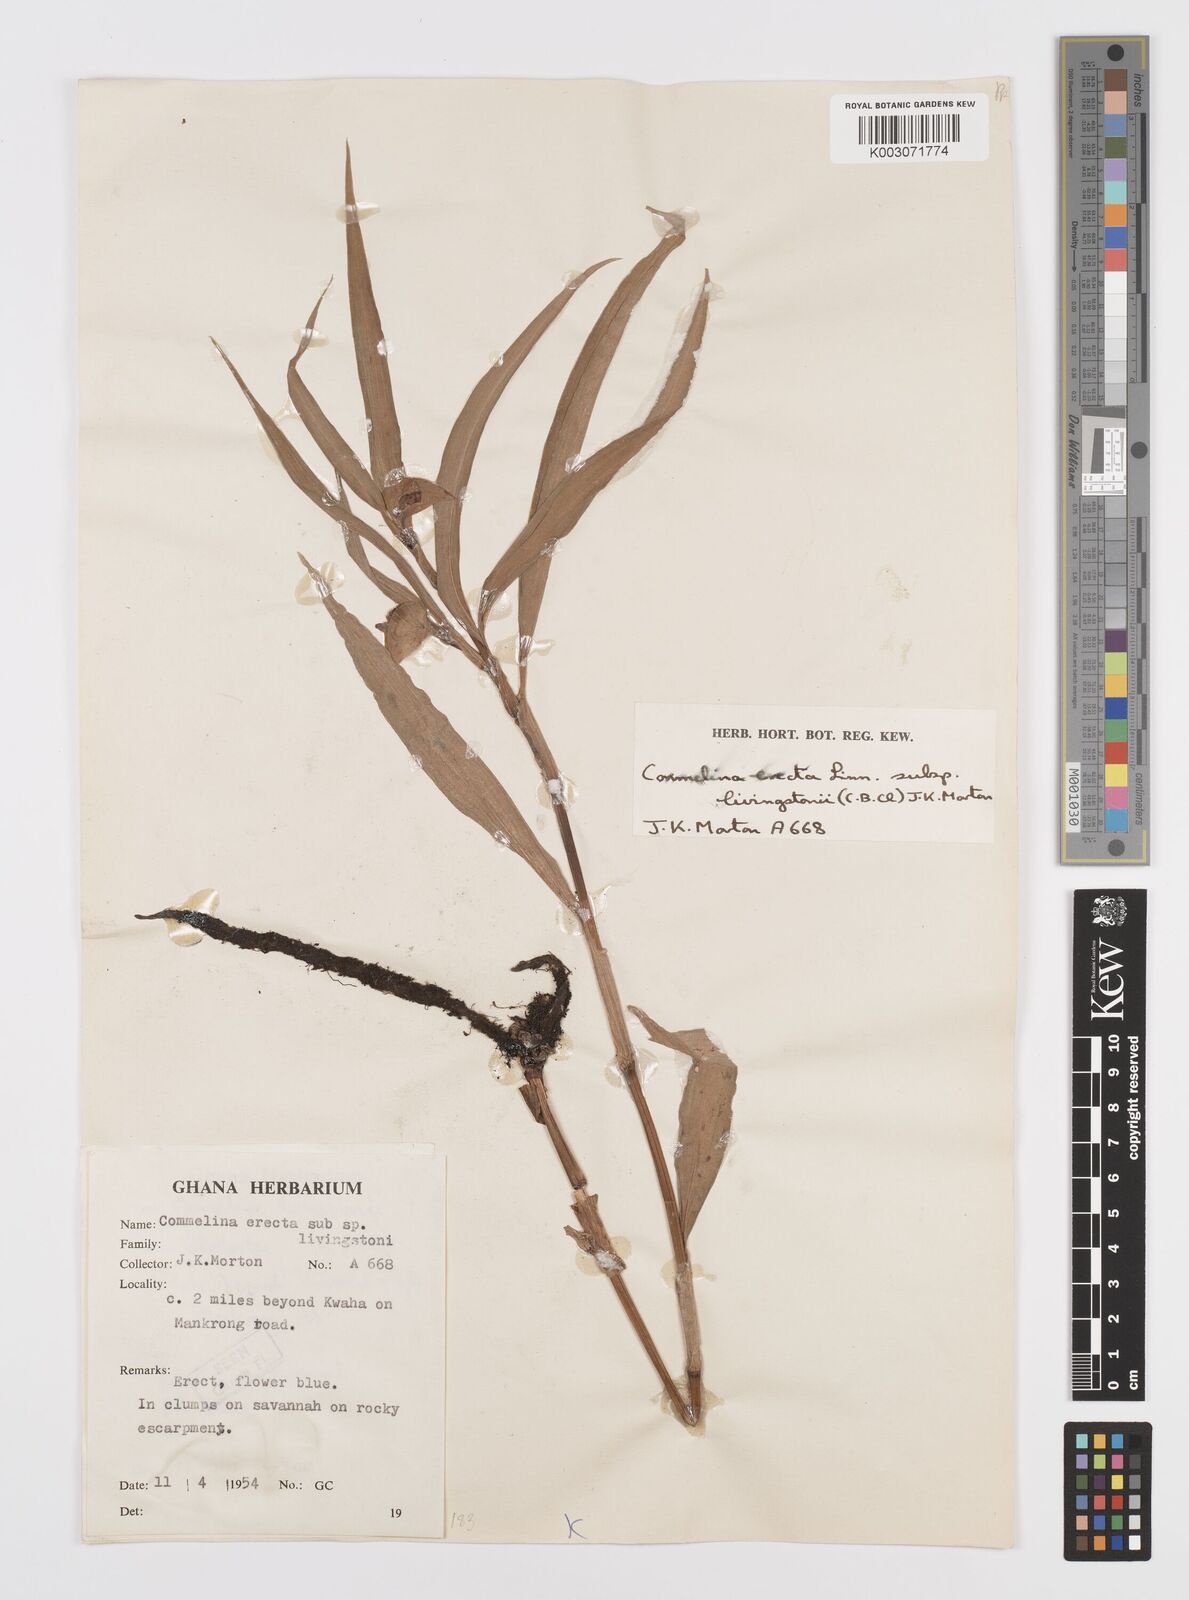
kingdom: Plantae
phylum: Tracheophyta
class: Liliopsida
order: Commelinales
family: Commelinaceae
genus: Commelina
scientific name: Commelina erecta
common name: Blousel blommetjie
